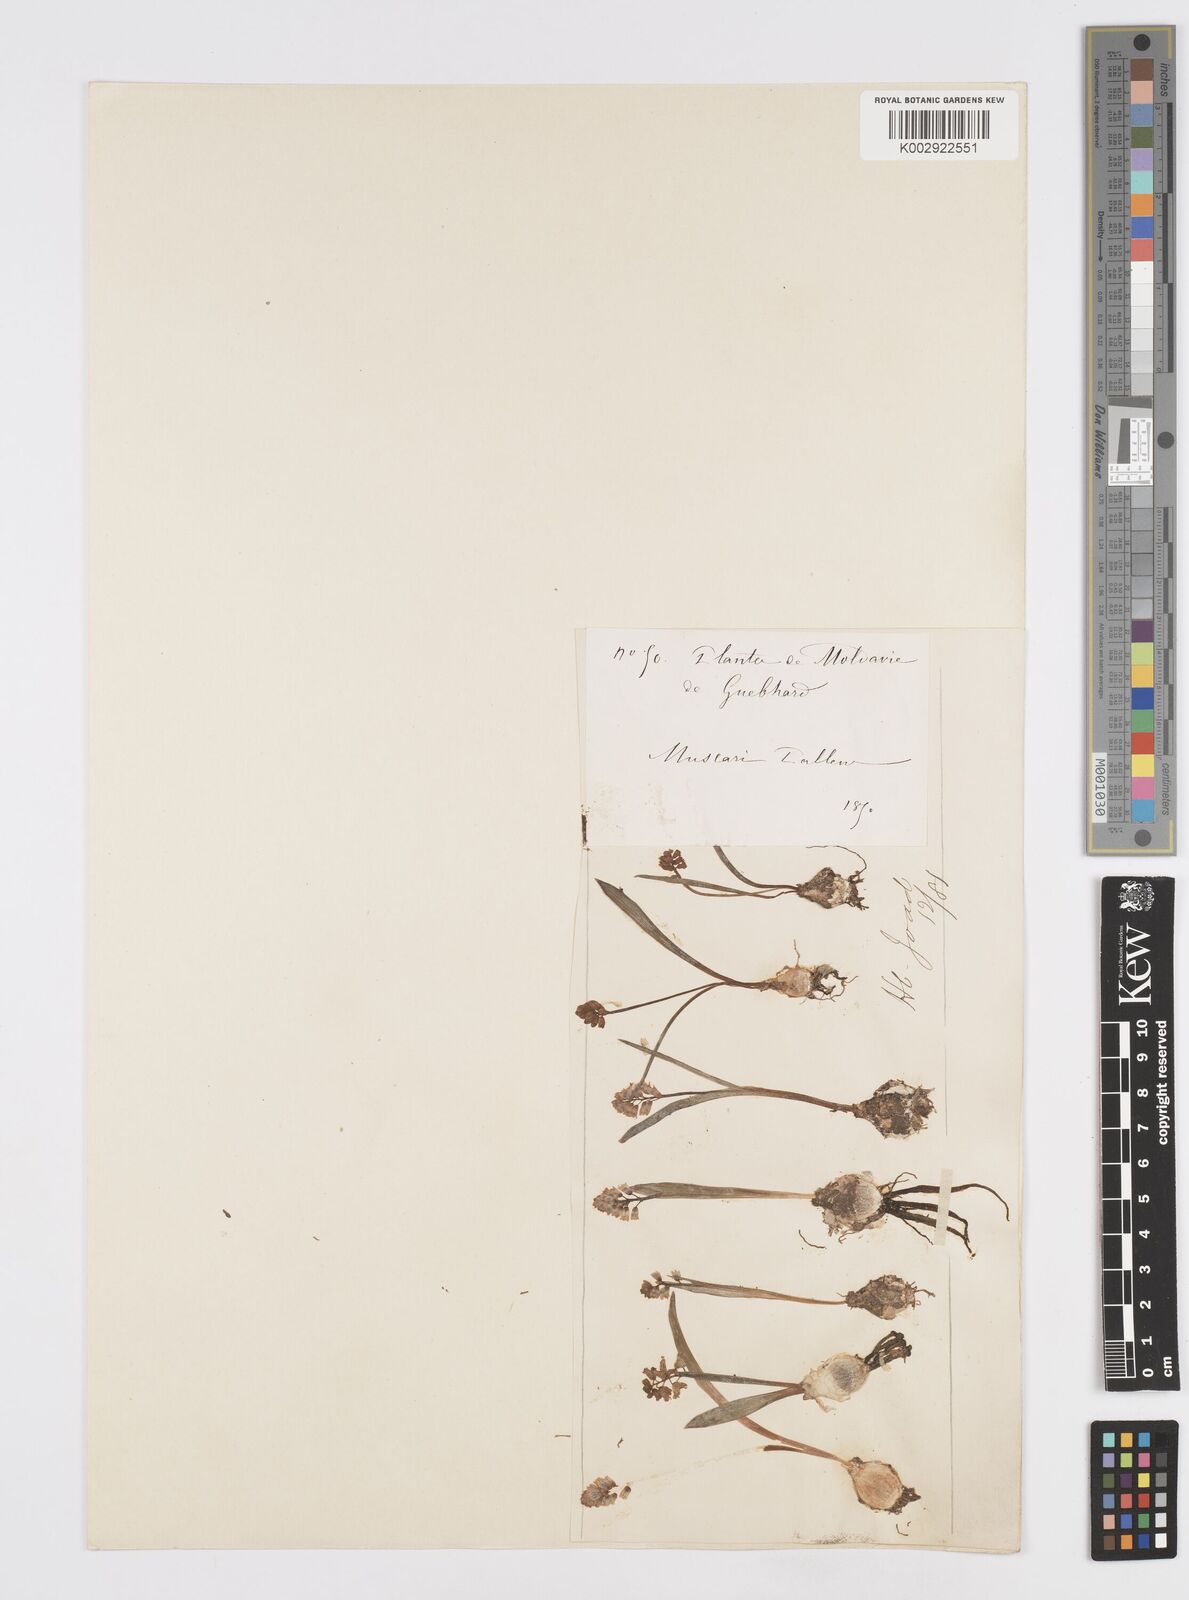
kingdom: Plantae
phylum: Tracheophyta
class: Liliopsida
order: Asparagales
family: Asparagaceae
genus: Hyacinthella
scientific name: Hyacinthella leucophaea
